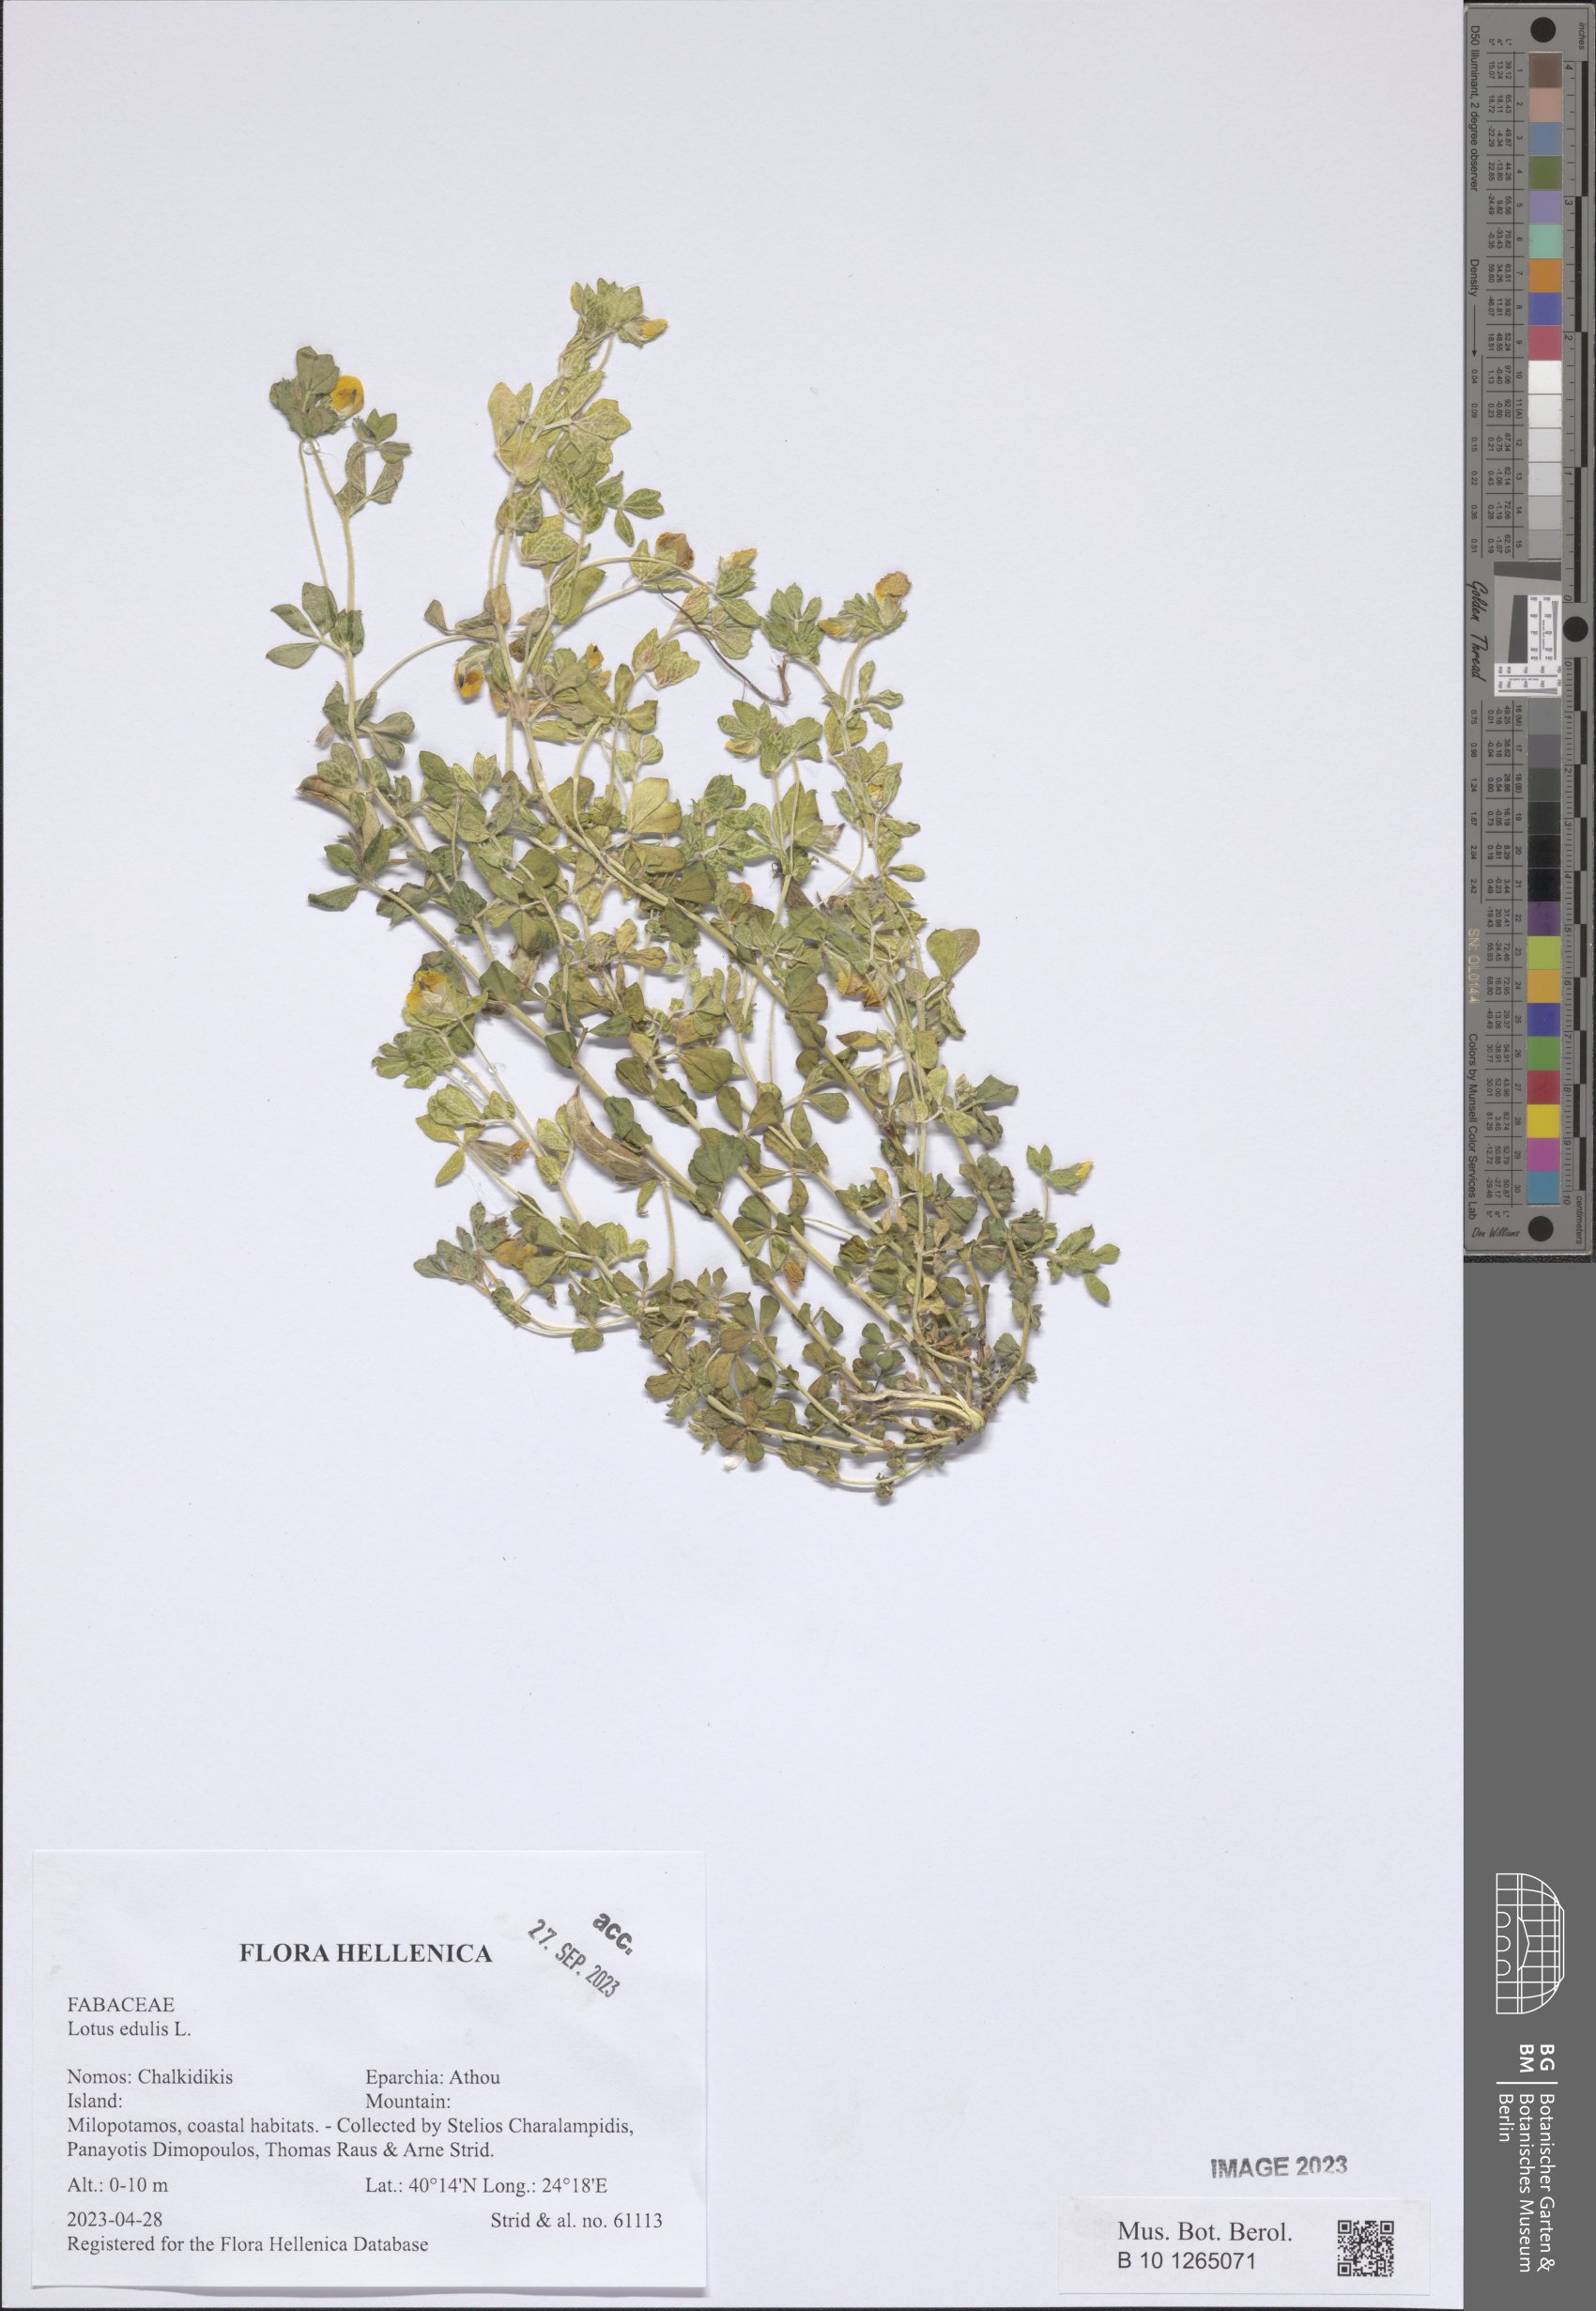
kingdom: Plantae
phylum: Tracheophyta
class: Magnoliopsida
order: Fabales
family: Fabaceae
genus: Lotus
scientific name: Lotus edulis
